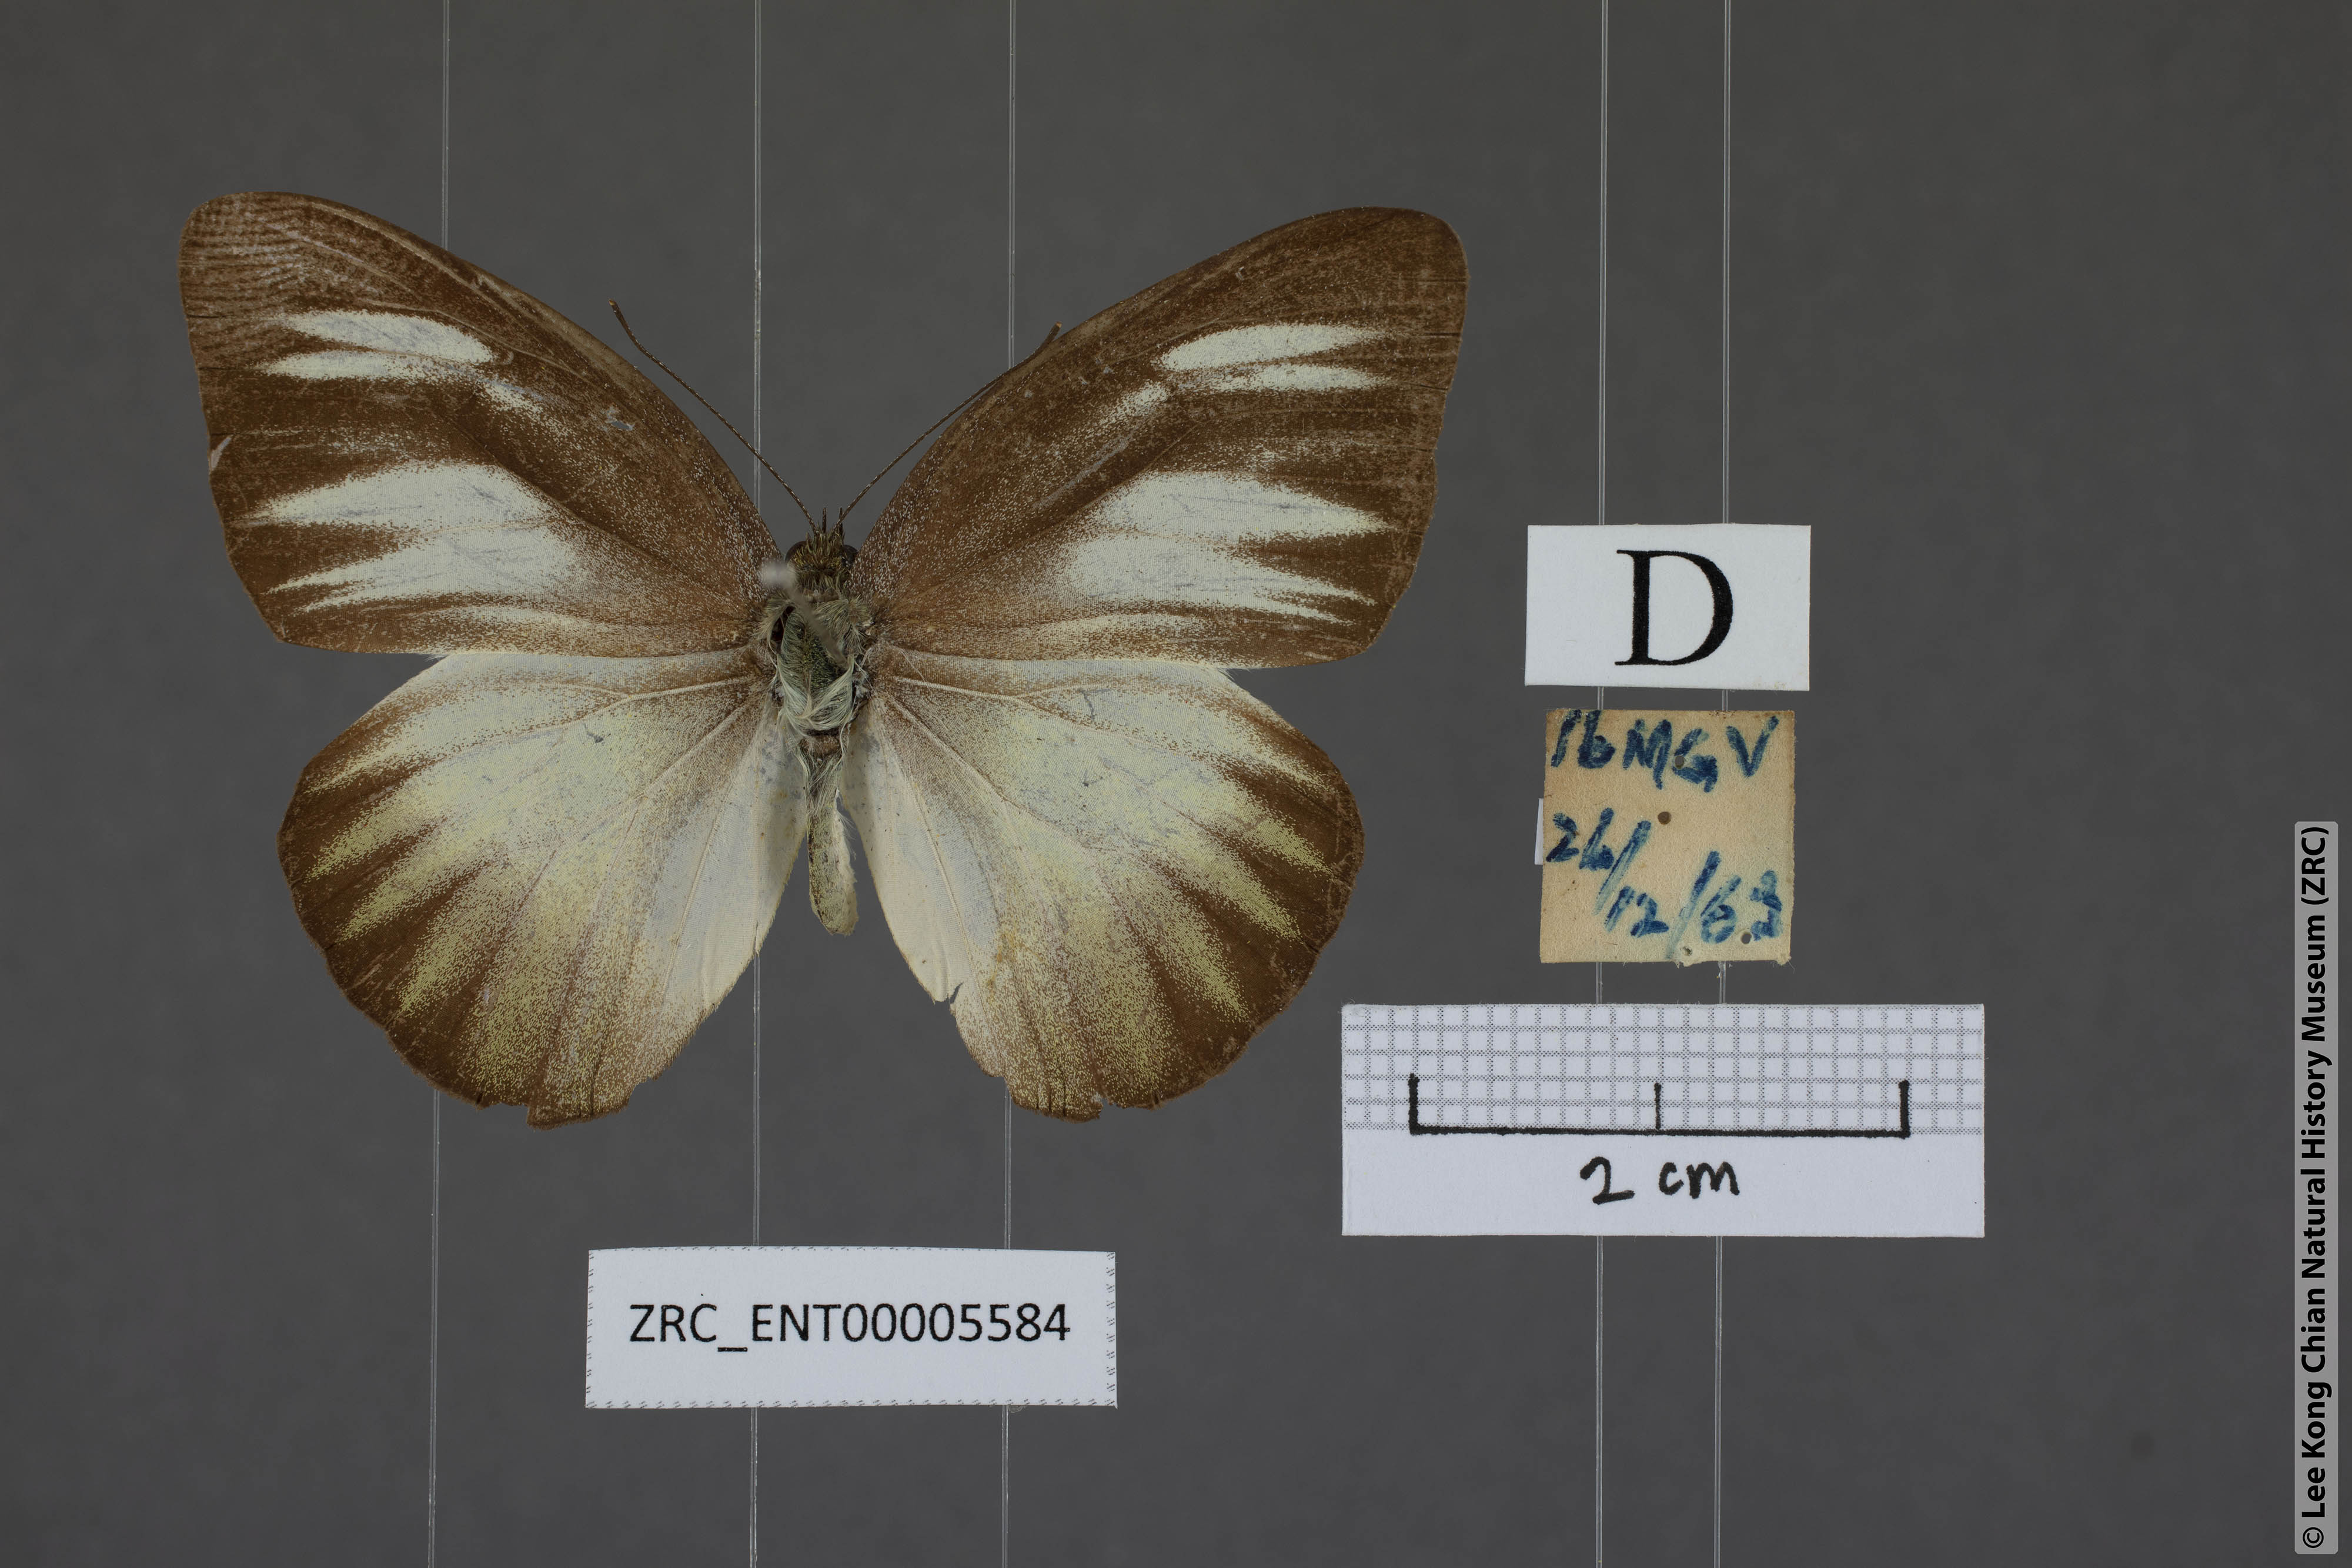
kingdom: Animalia
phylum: Arthropoda
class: Insecta
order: Lepidoptera
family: Pieridae
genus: Appias
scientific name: Appias lyncida
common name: Chocolate albatross
